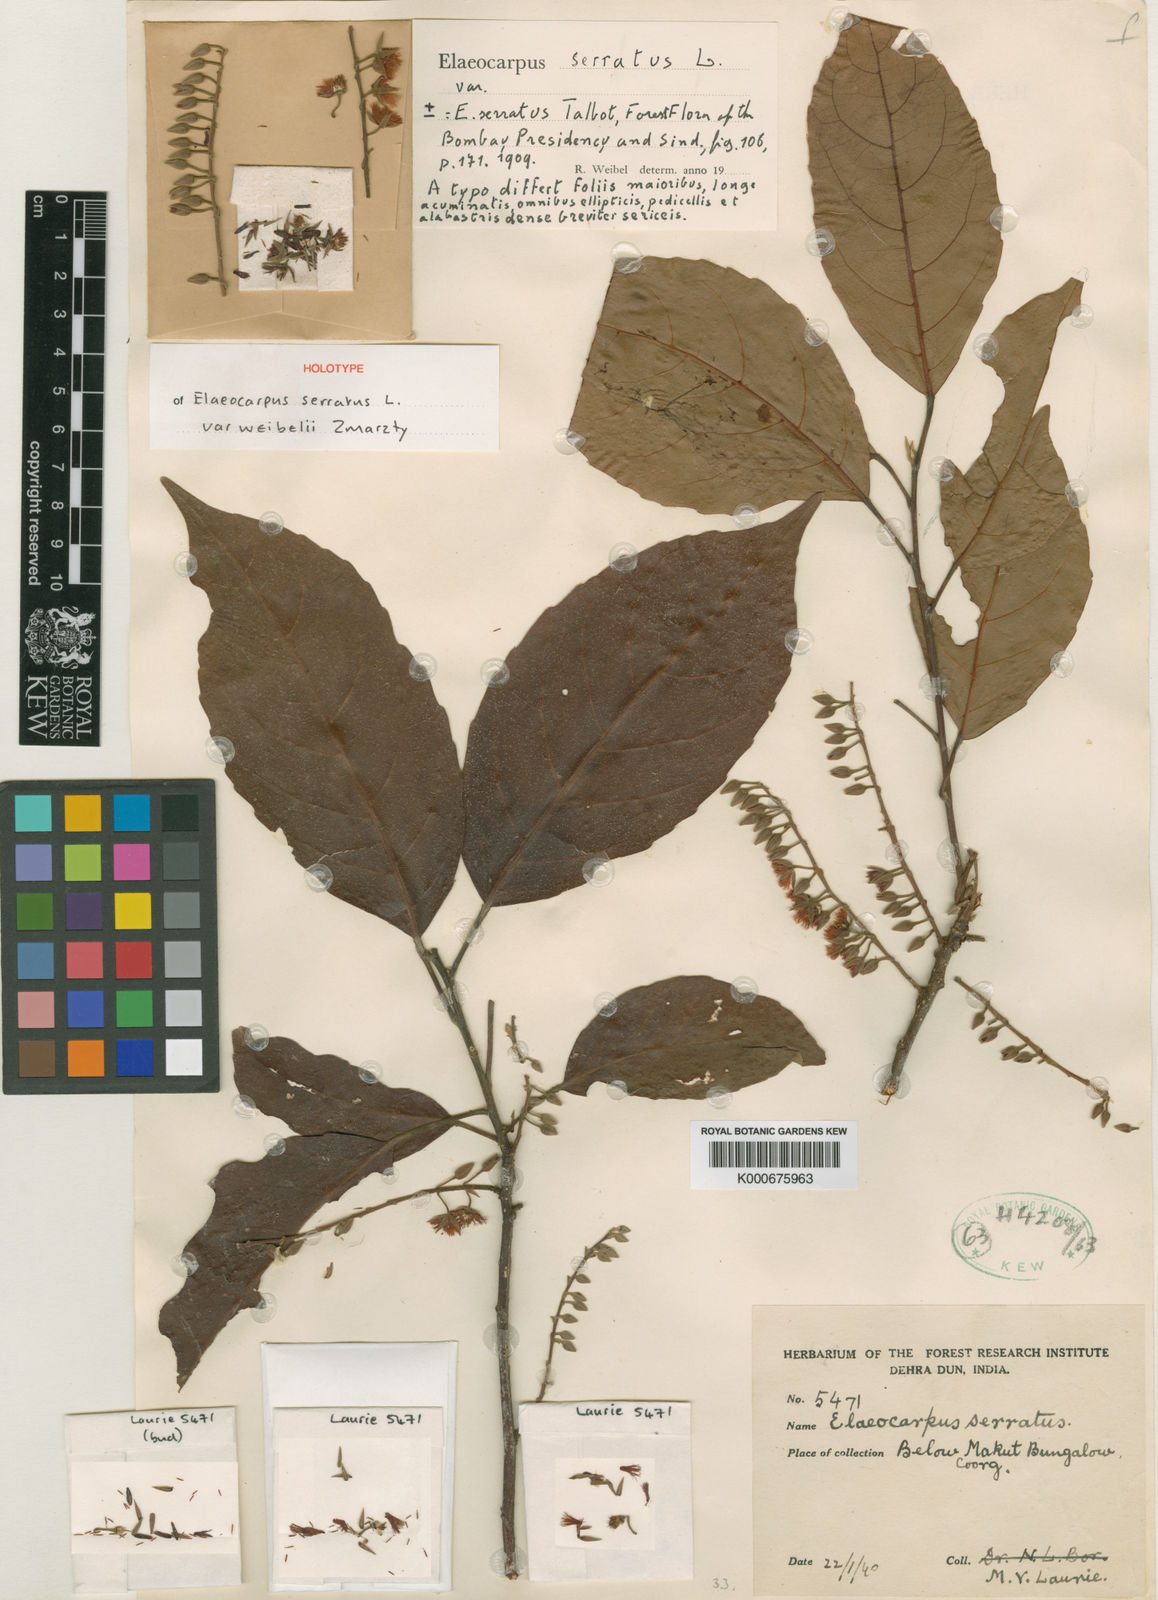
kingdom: Plantae
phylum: Tracheophyta
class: Magnoliopsida
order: Oxalidales
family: Elaeocarpaceae
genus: Elaeocarpus
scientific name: Elaeocarpus weibelii
